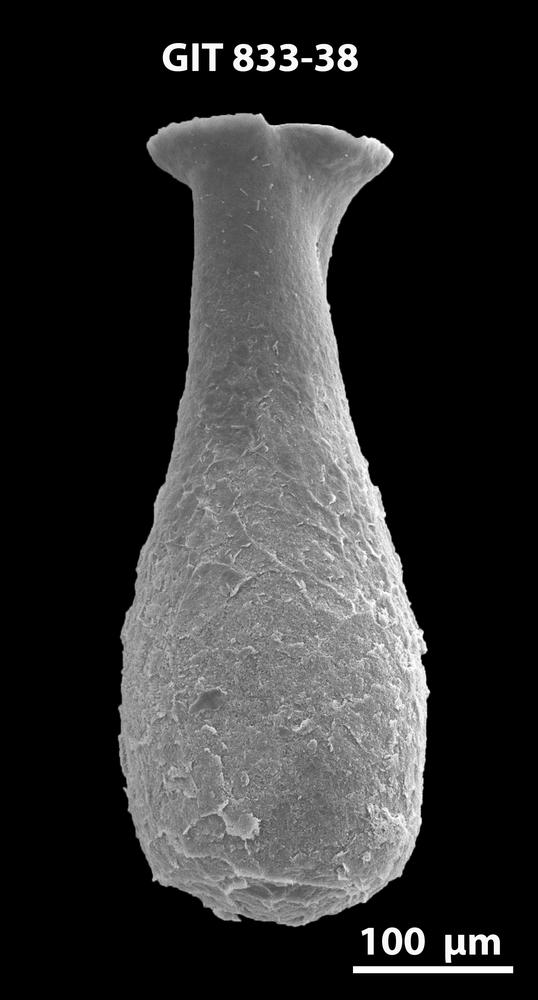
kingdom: Animalia
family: Lagenochitinidae
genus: Lagenochitina
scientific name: Lagenochitina megaesthonica
